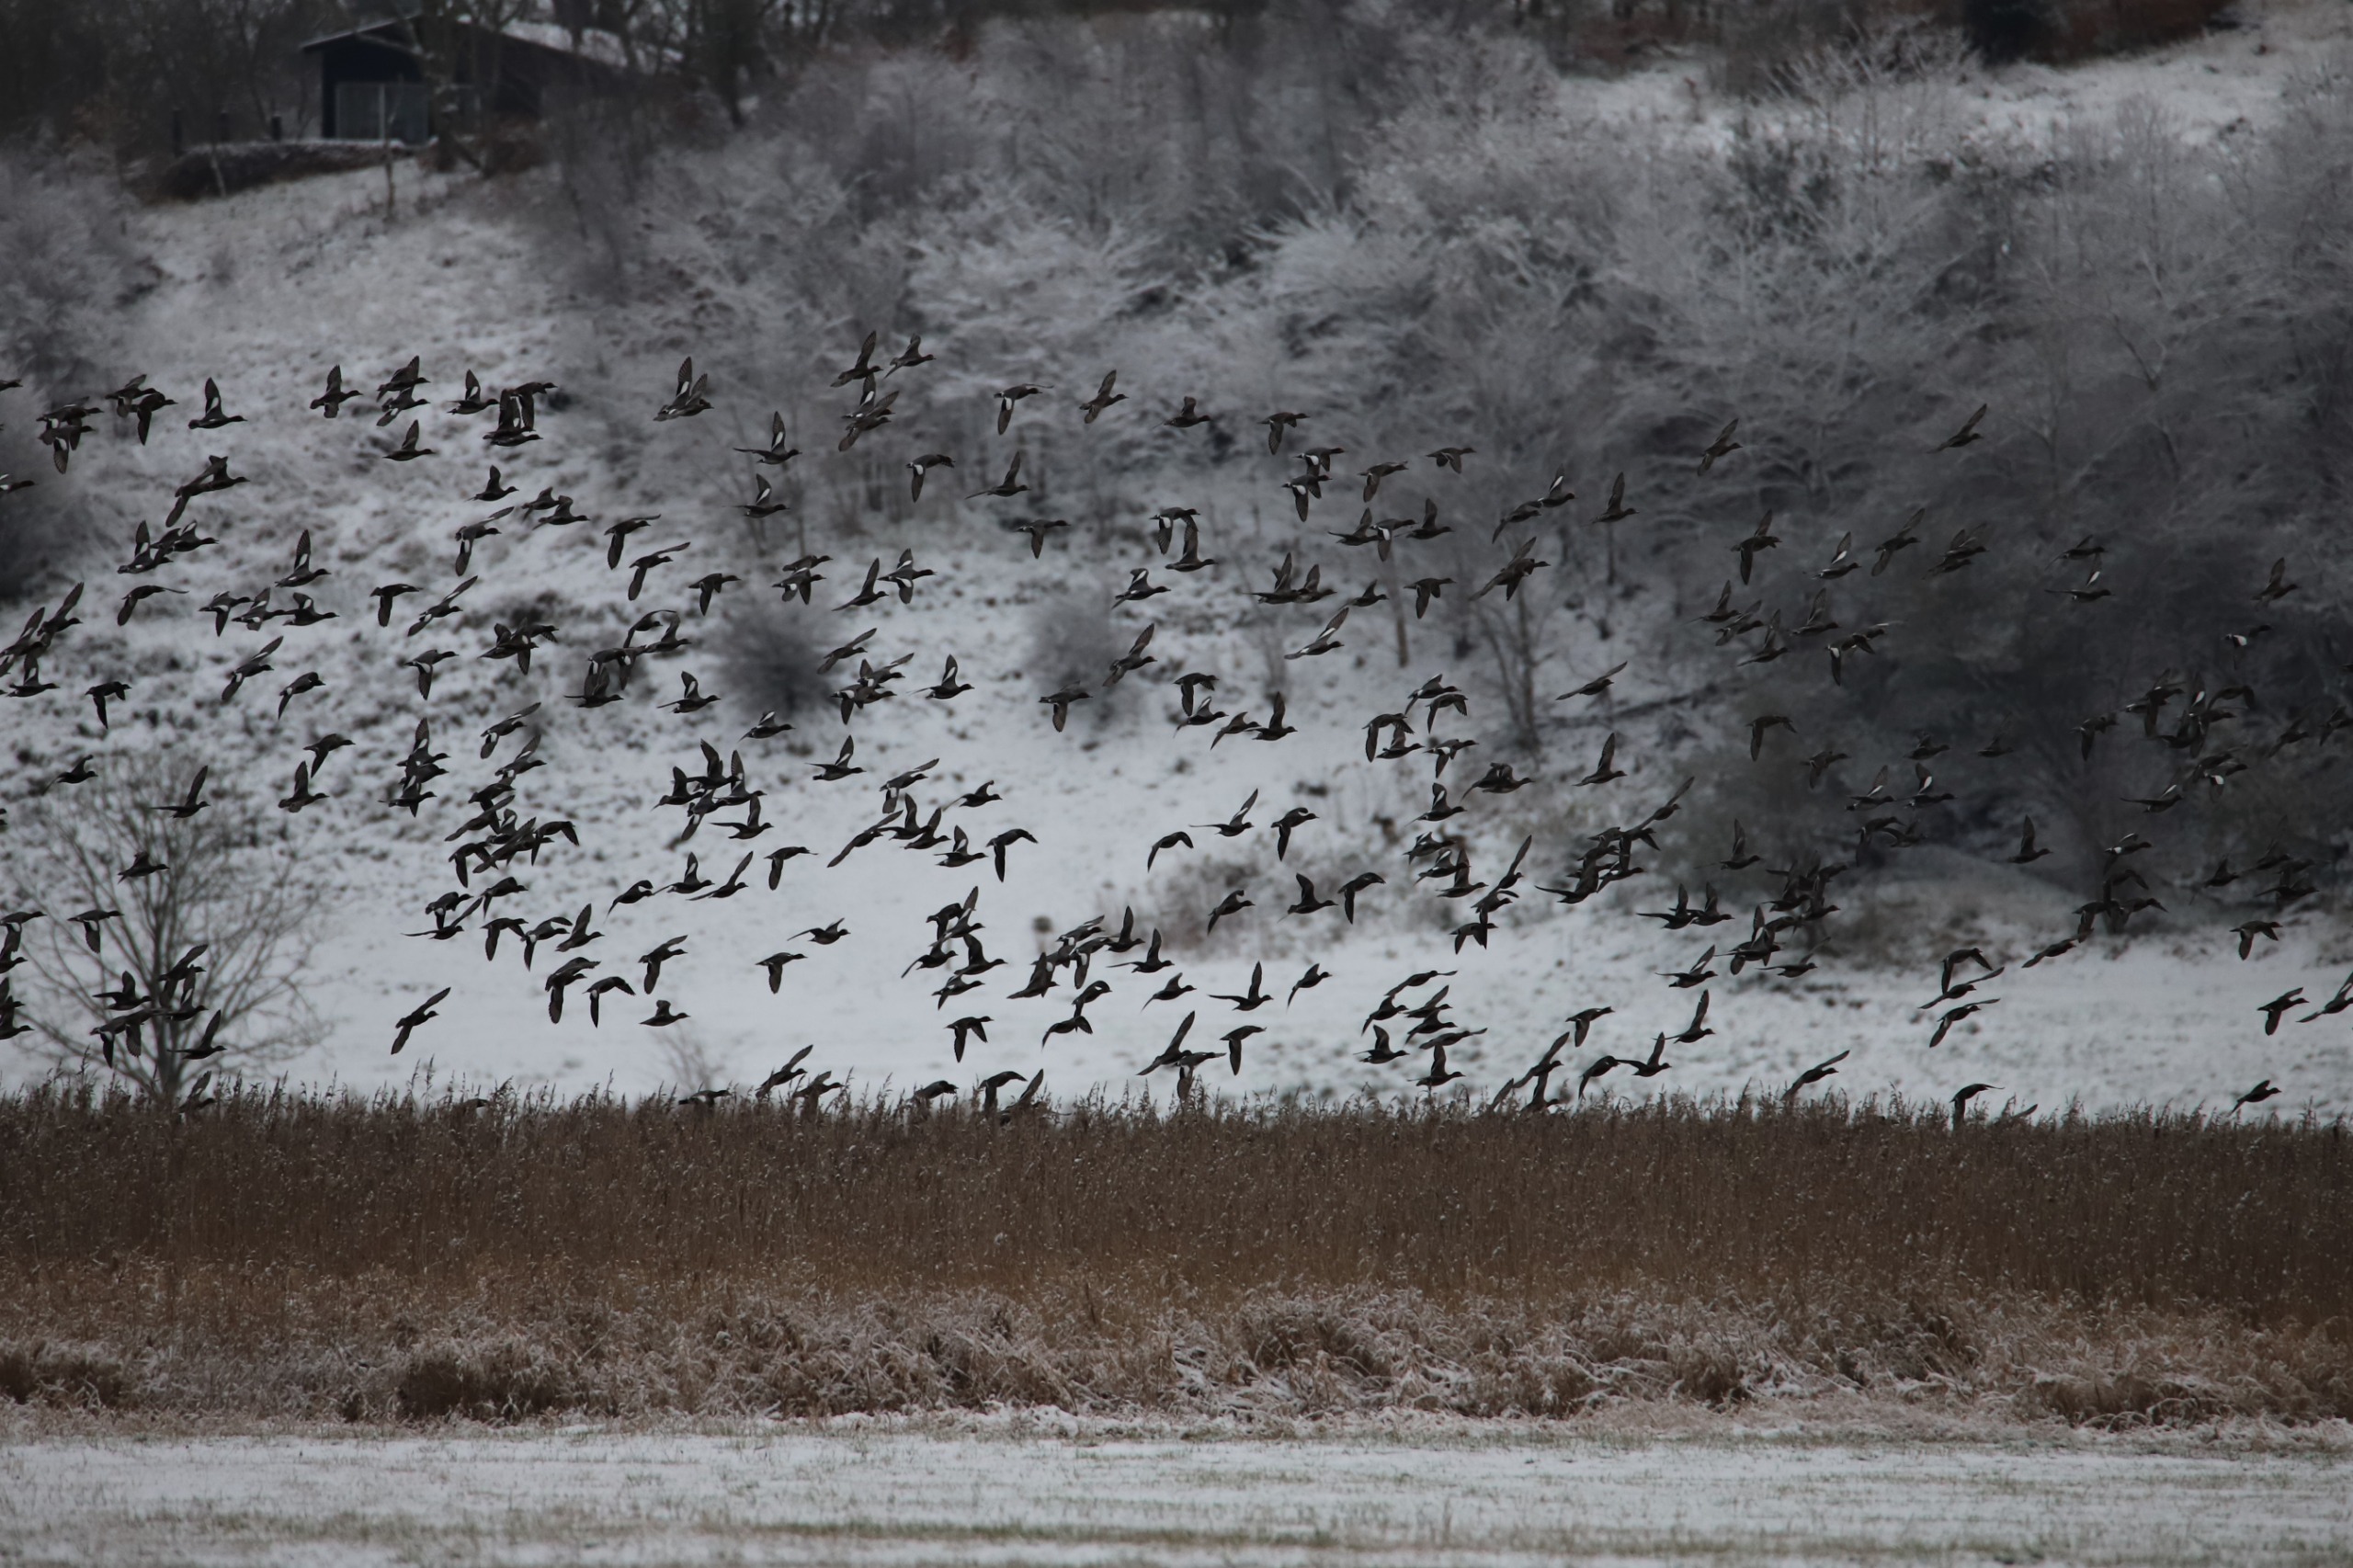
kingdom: Animalia
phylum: Chordata
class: Aves
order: Anseriformes
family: Anatidae
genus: Mareca
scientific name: Mareca penelope
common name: Pibeand
